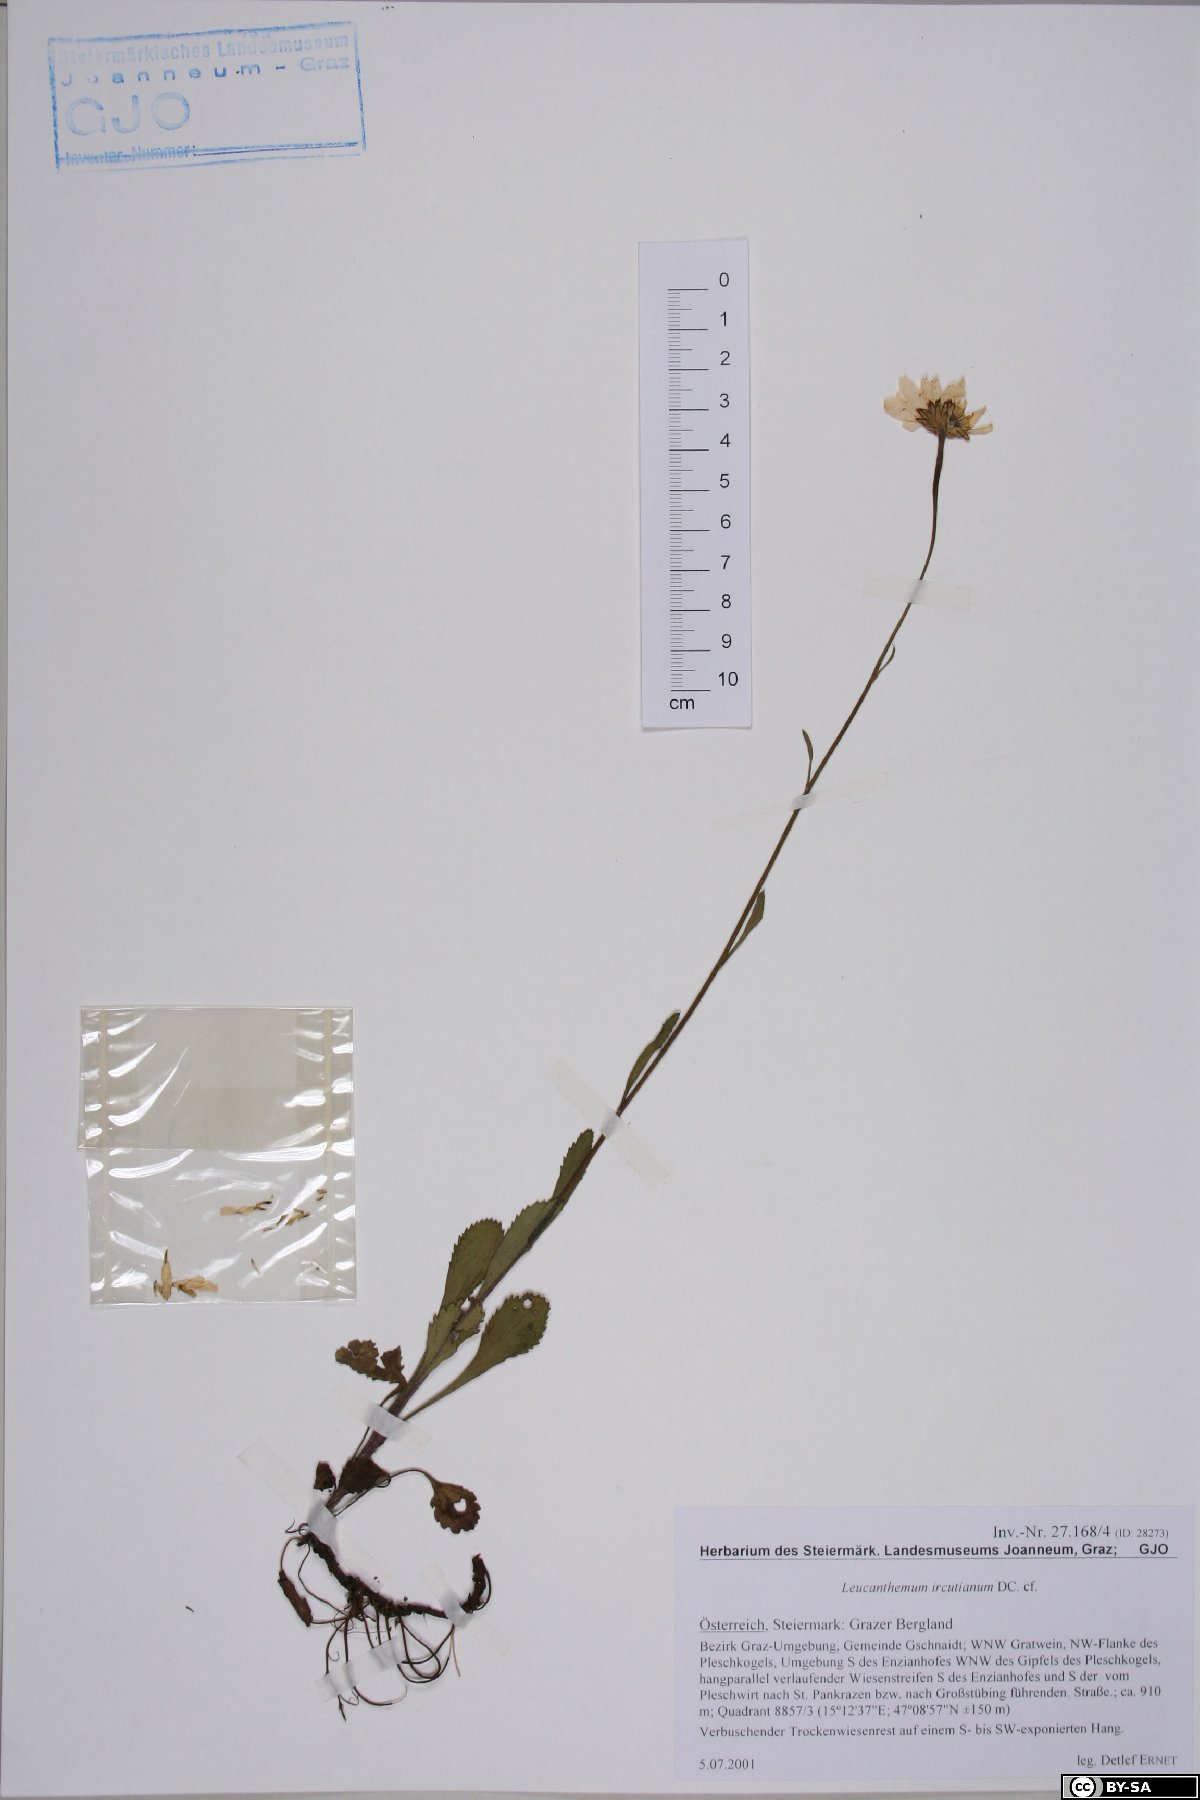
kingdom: Plantae
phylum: Tracheophyta
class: Magnoliopsida
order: Asterales
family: Asteraceae
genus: Leucanthemum
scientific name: Leucanthemum ircutianum
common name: Daisy
